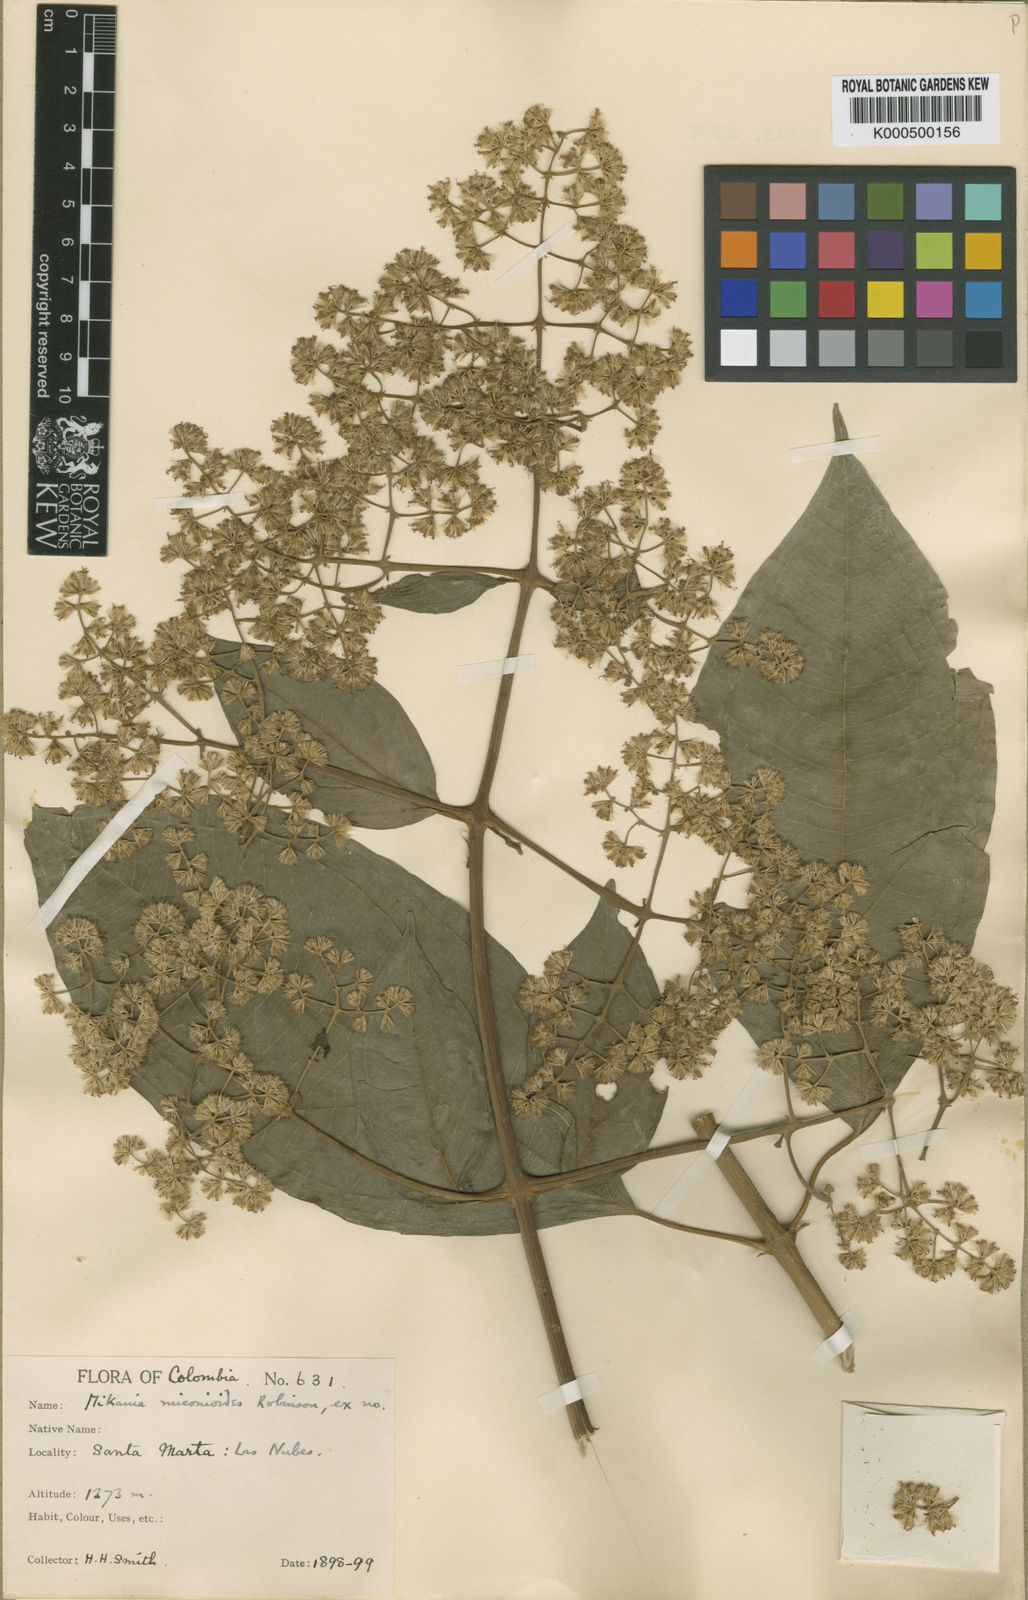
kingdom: Plantae
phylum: Tracheophyta
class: Magnoliopsida
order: Asterales
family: Asteraceae
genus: Mikania
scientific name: Mikania sylvatica
